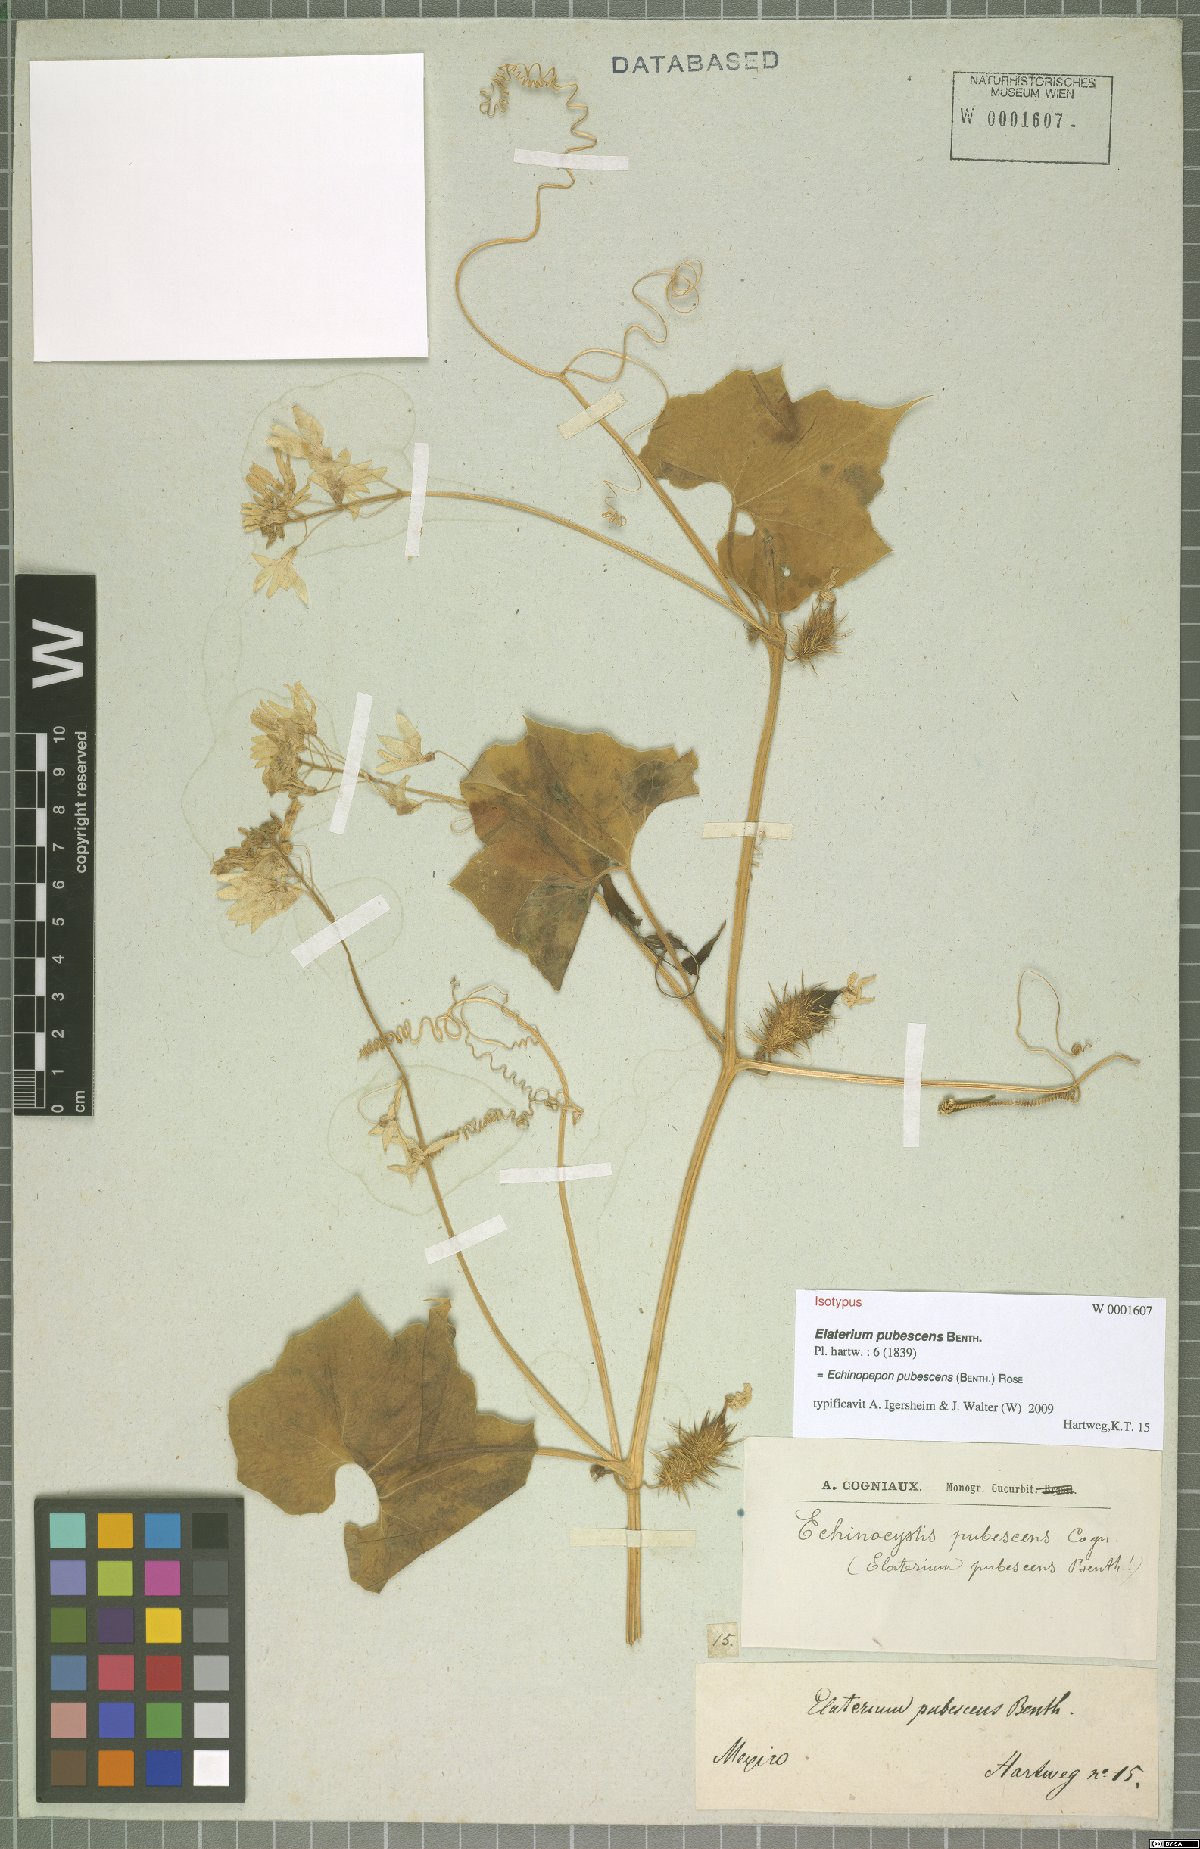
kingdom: Plantae
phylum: Tracheophyta
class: Magnoliopsida
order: Cucurbitales
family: Cucurbitaceae
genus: Echinopepon
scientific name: Echinopepon pubescens
